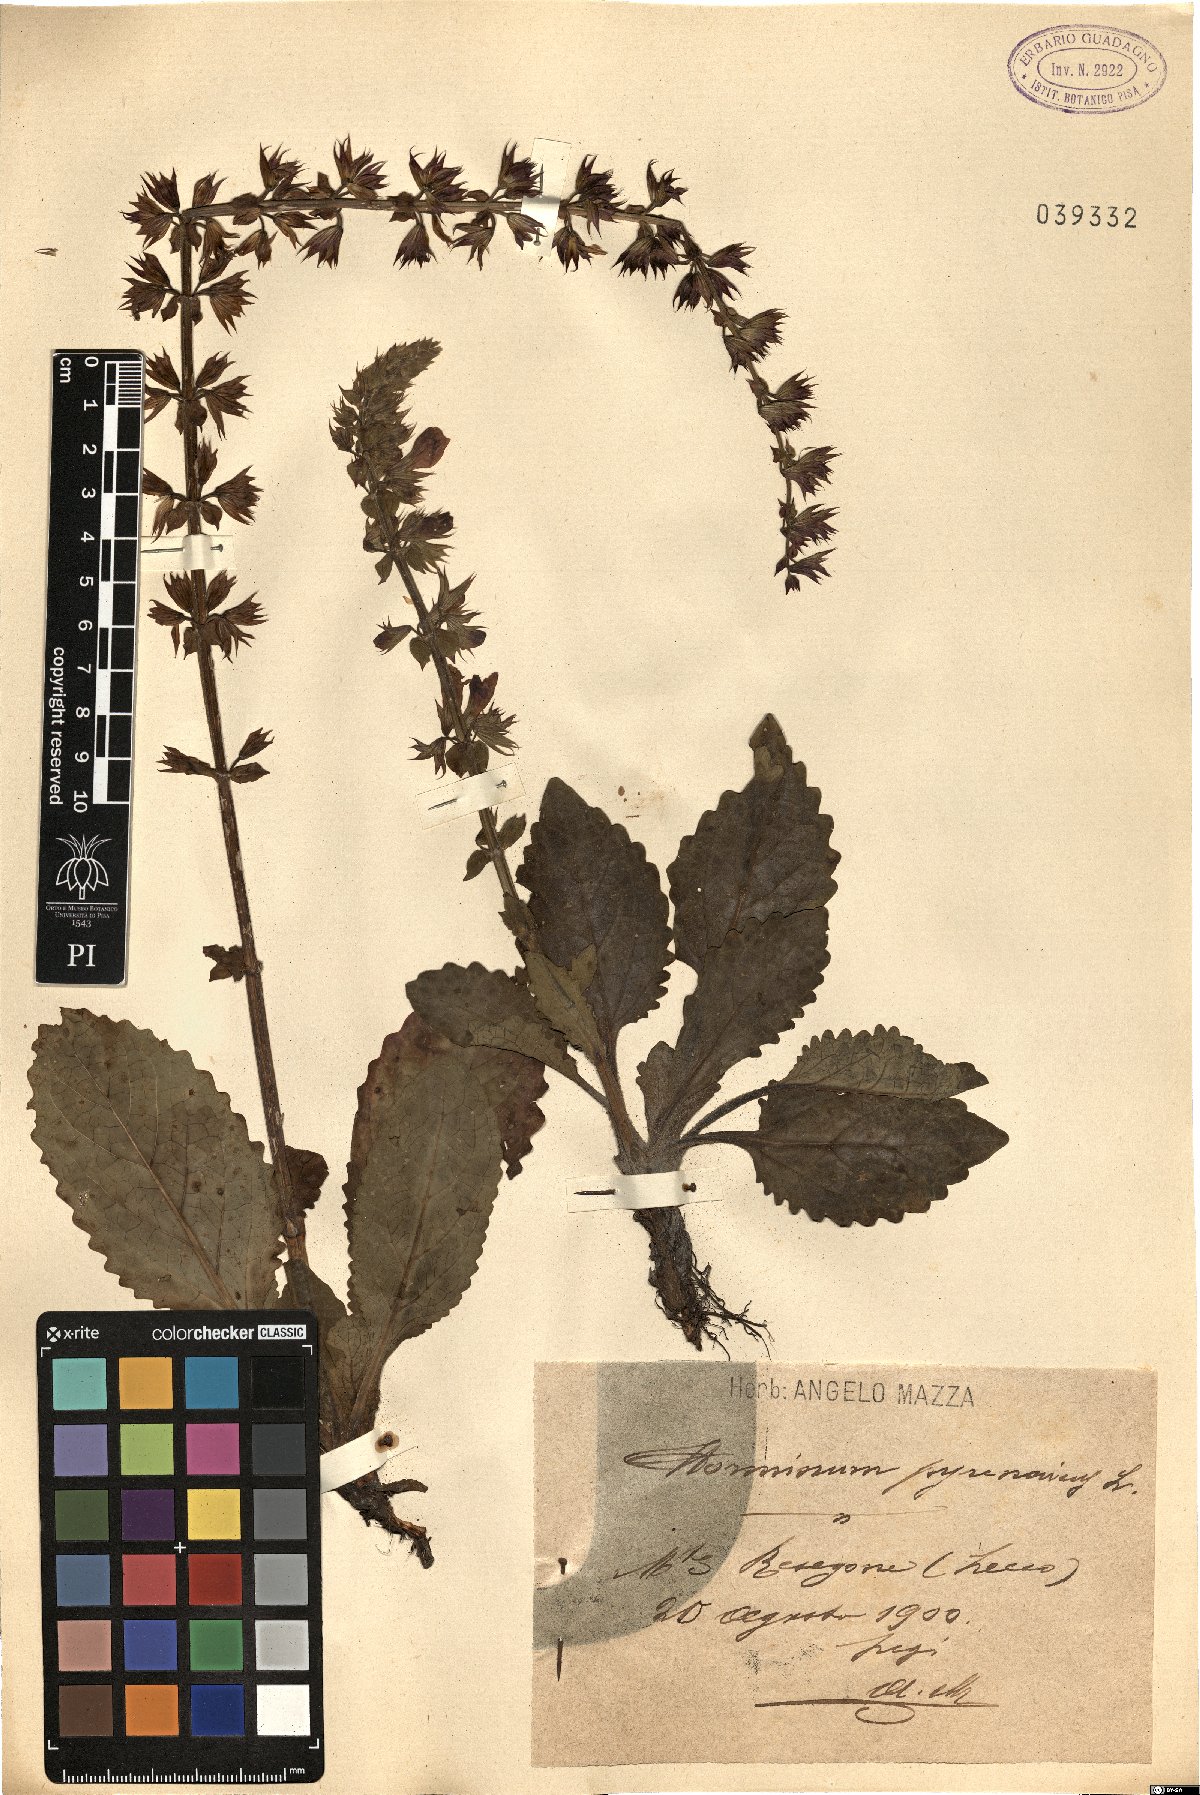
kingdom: Plantae
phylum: Tracheophyta
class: Magnoliopsida
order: Lamiales
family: Lamiaceae
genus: Horminum
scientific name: Horminum pyrenaicum
